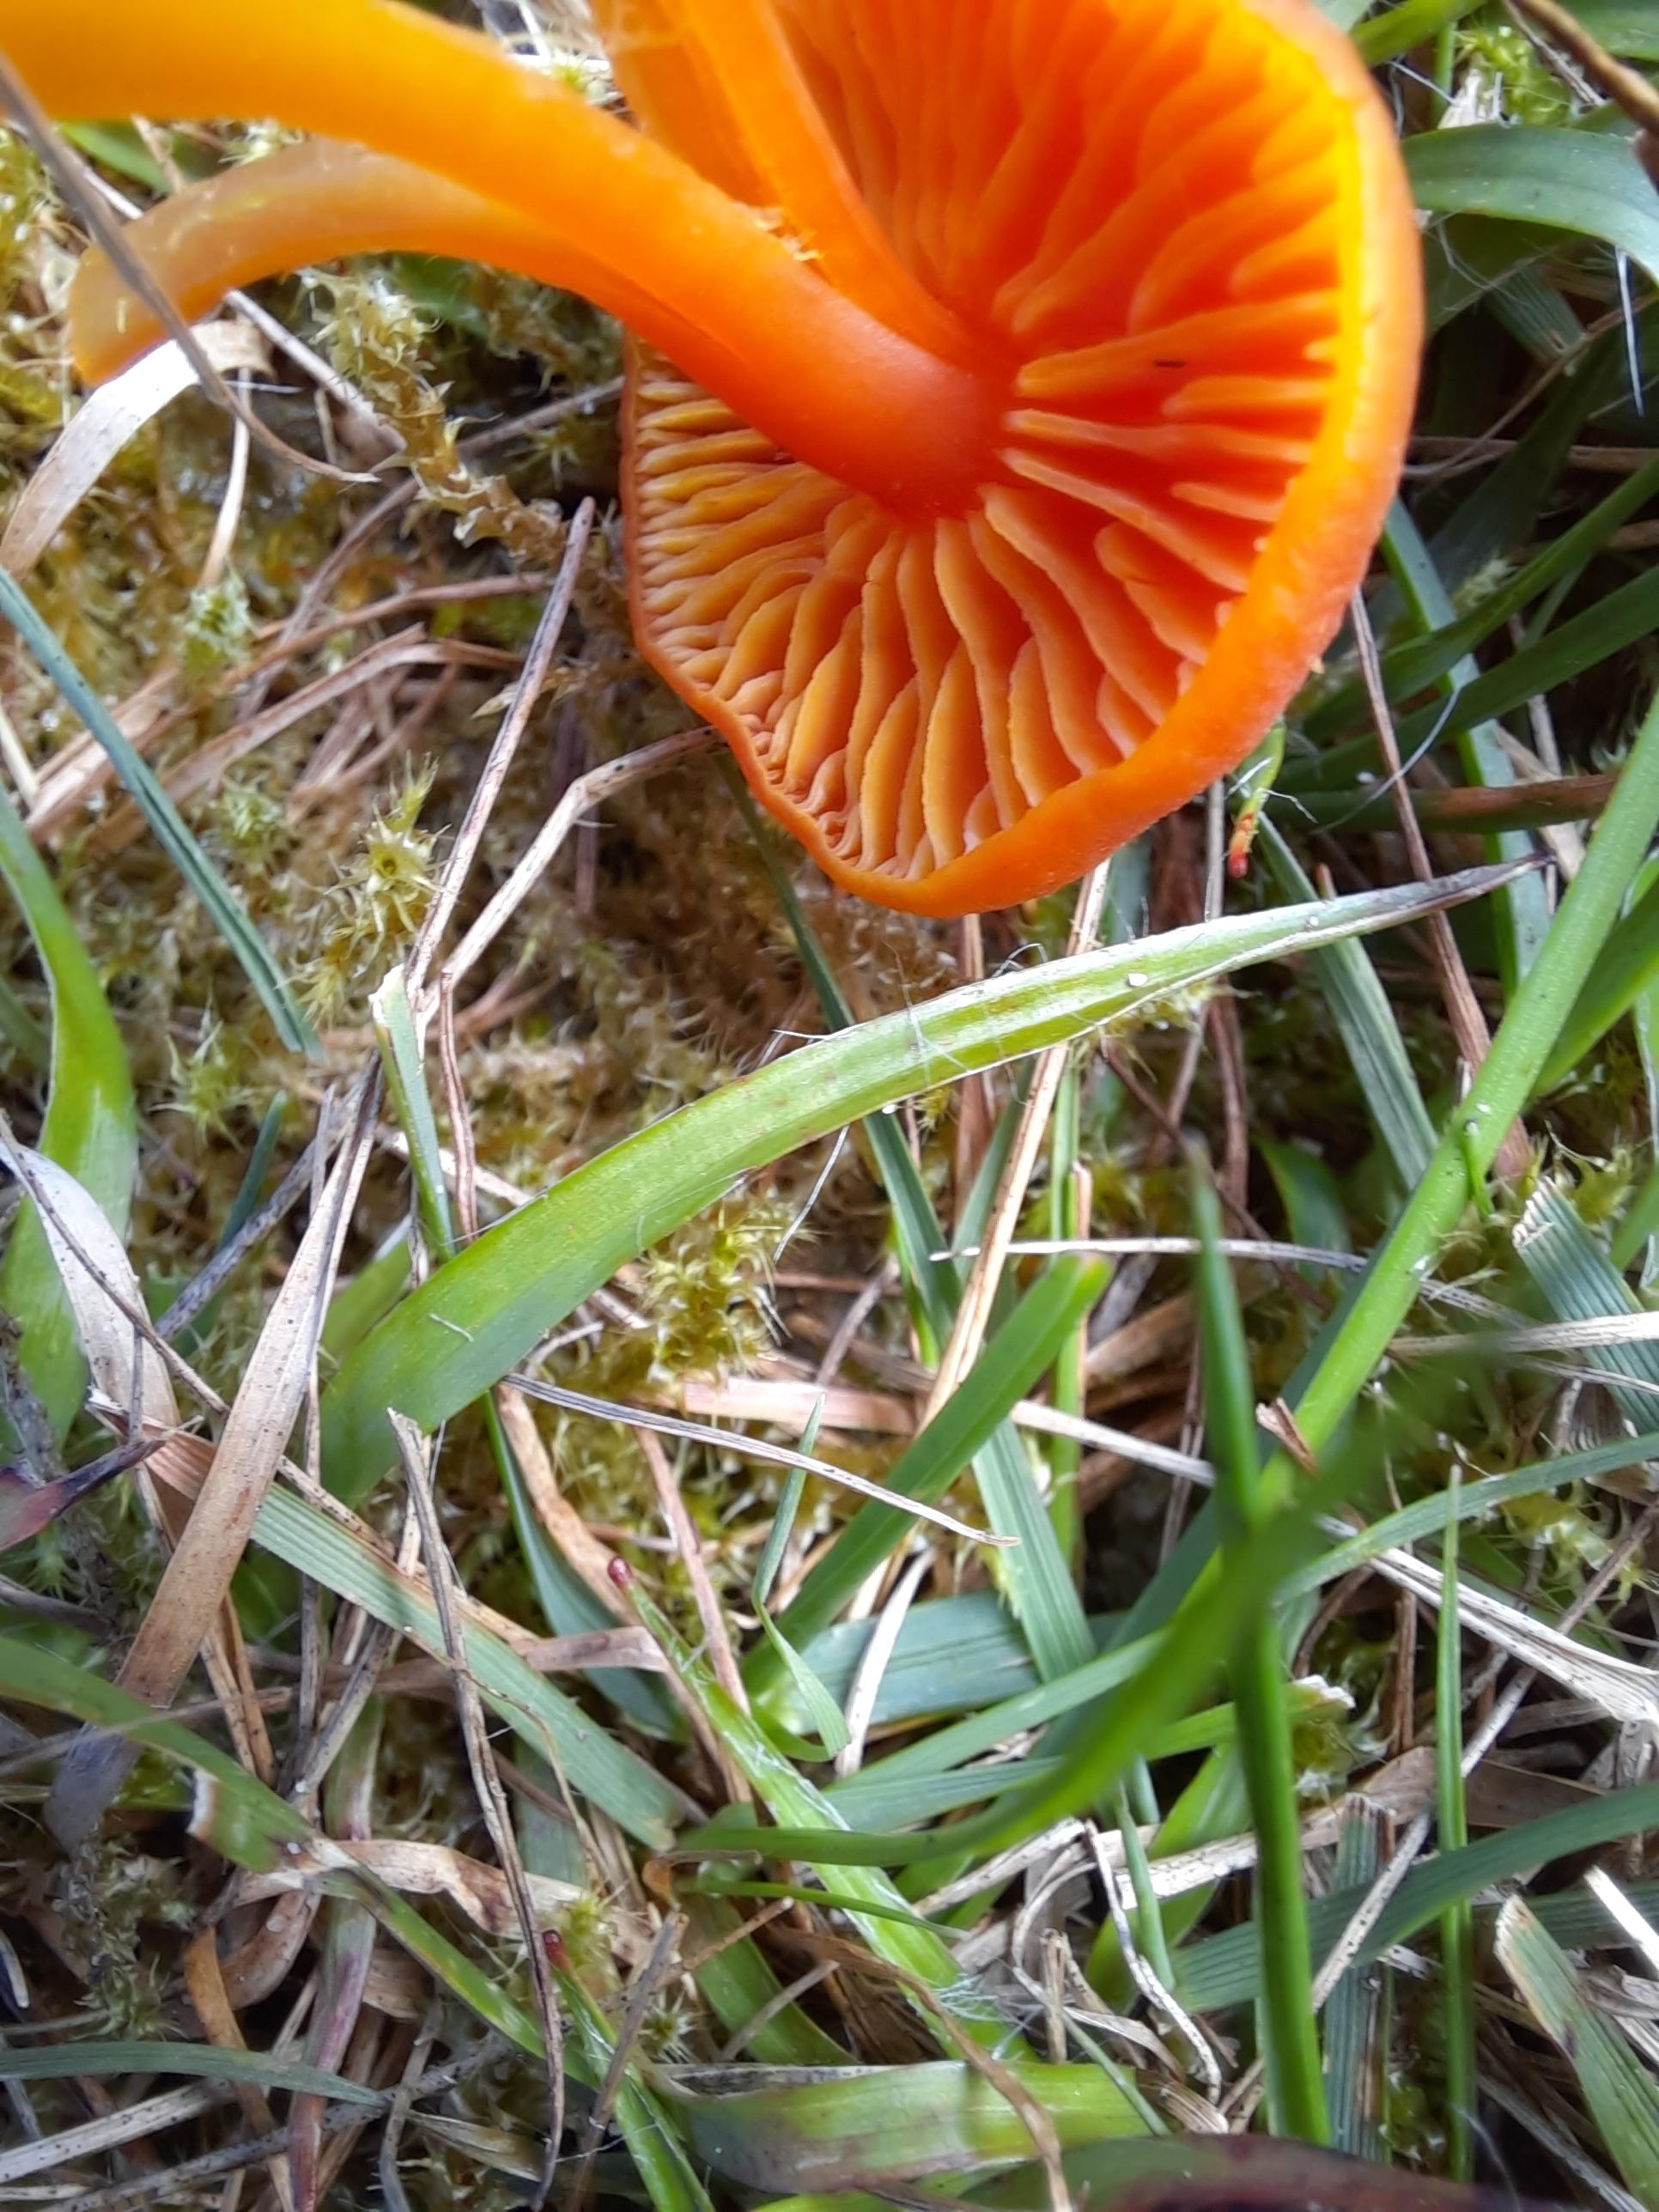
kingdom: Fungi
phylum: Basidiomycota
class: Agaricomycetes
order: Agaricales
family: Hygrophoraceae
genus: Hygrocybe
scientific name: Hygrocybe miniata
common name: mønje-vokshat
